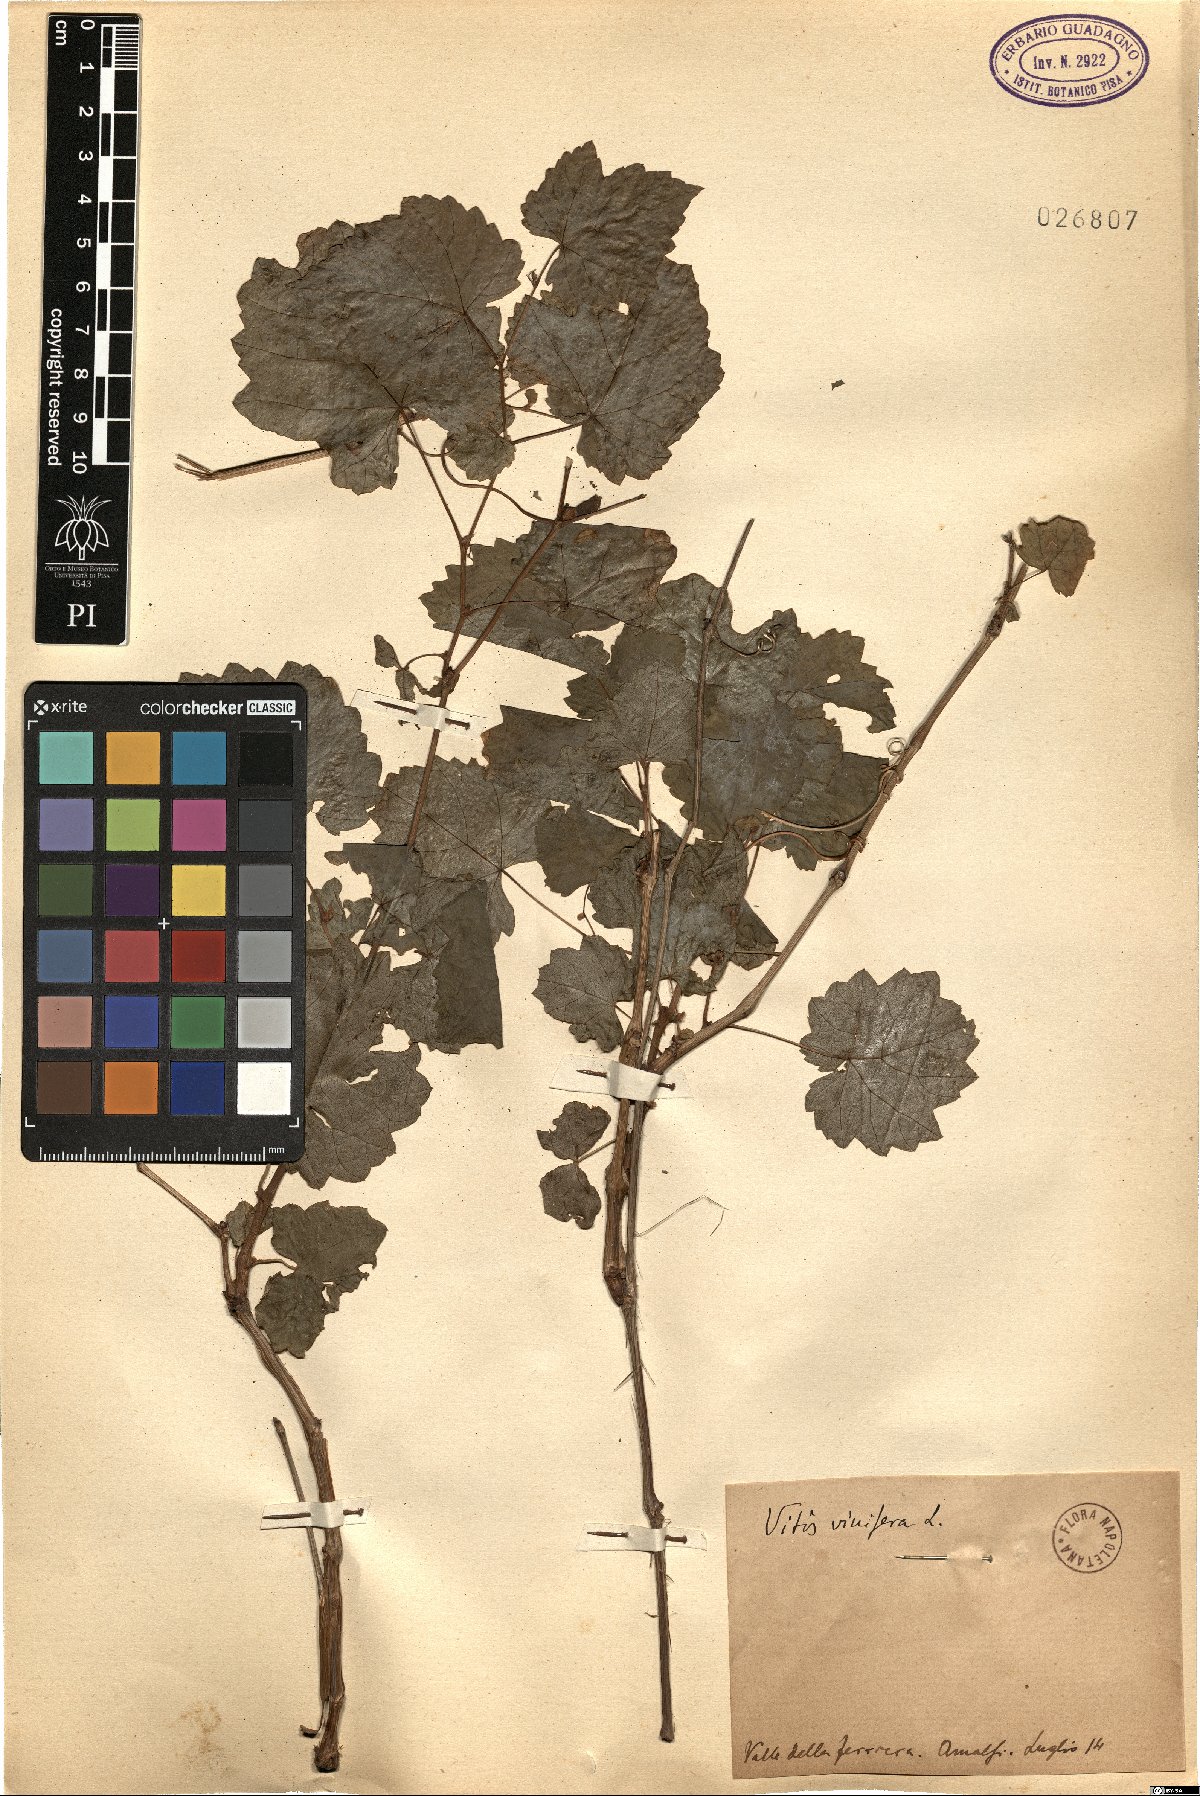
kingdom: Plantae
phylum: Tracheophyta
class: Magnoliopsida
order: Vitales
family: Vitaceae
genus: Vitis
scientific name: Vitis vinifera
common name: Grape-vine
